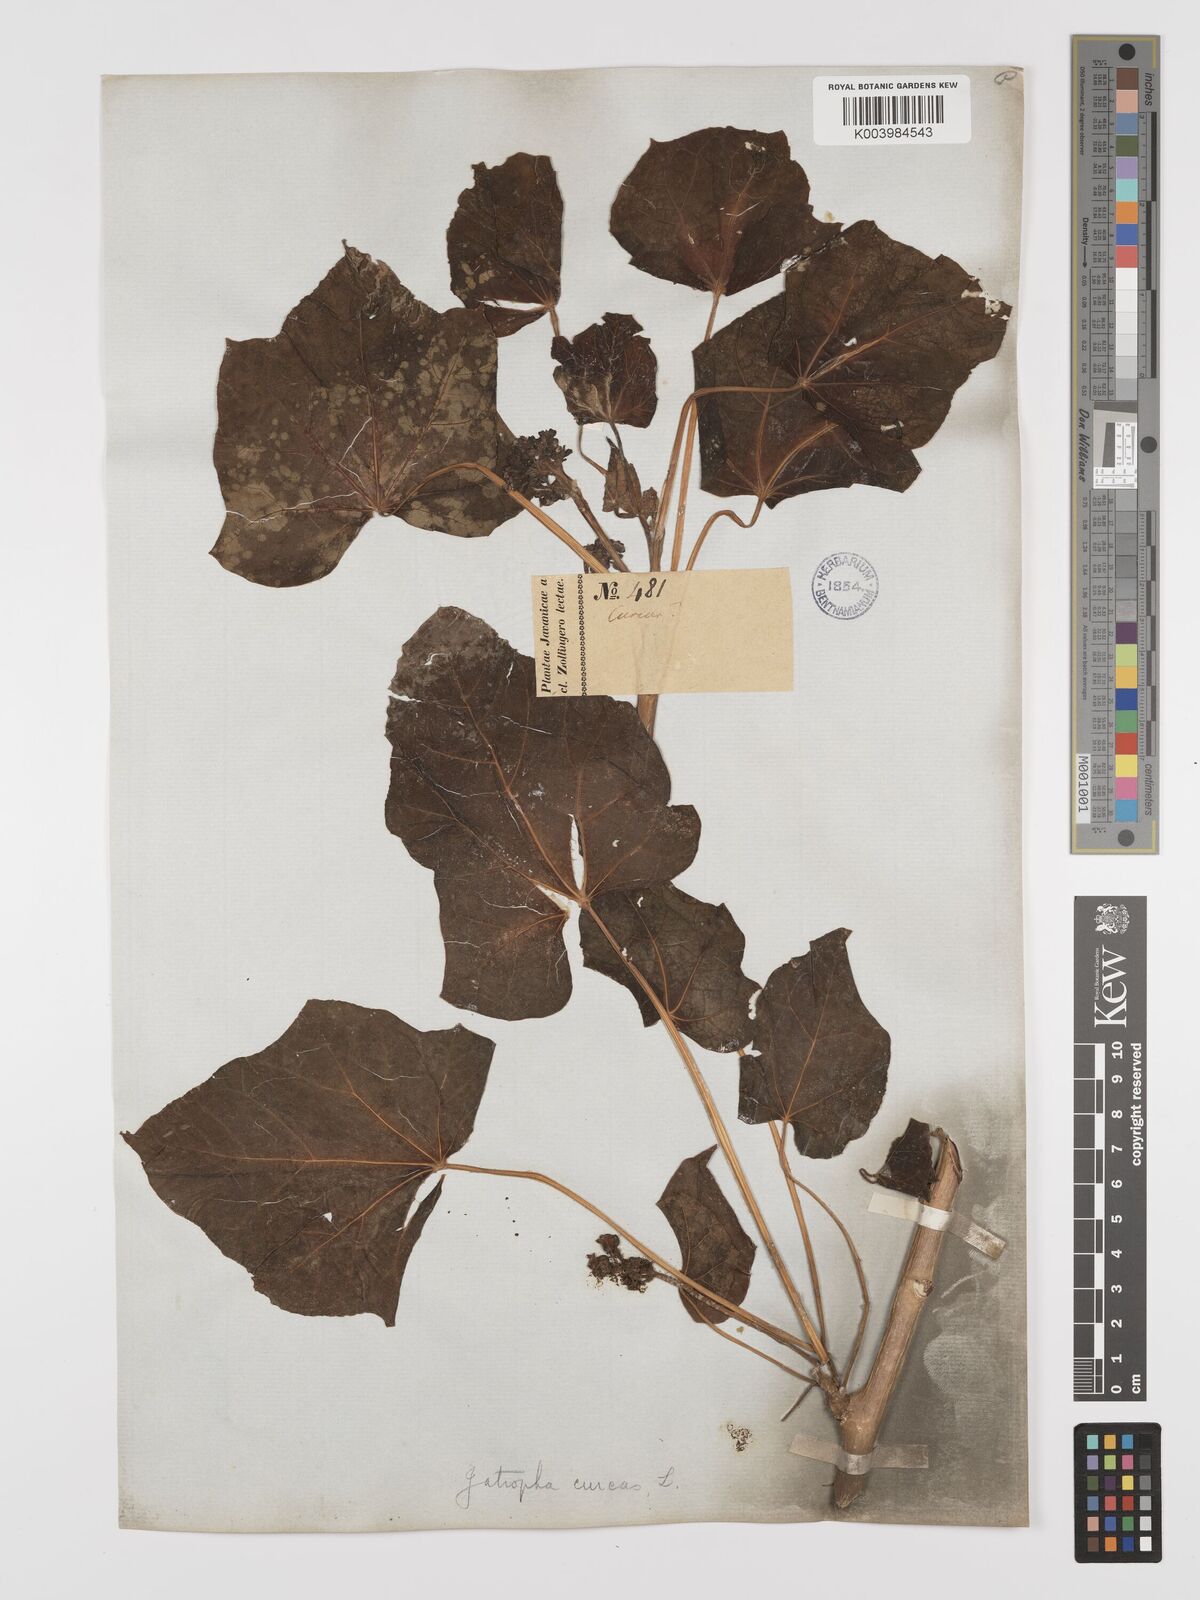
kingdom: Plantae
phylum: Tracheophyta
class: Magnoliopsida
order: Malpighiales
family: Euphorbiaceae
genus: Jatropha
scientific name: Jatropha curcas
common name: Barbados nut
